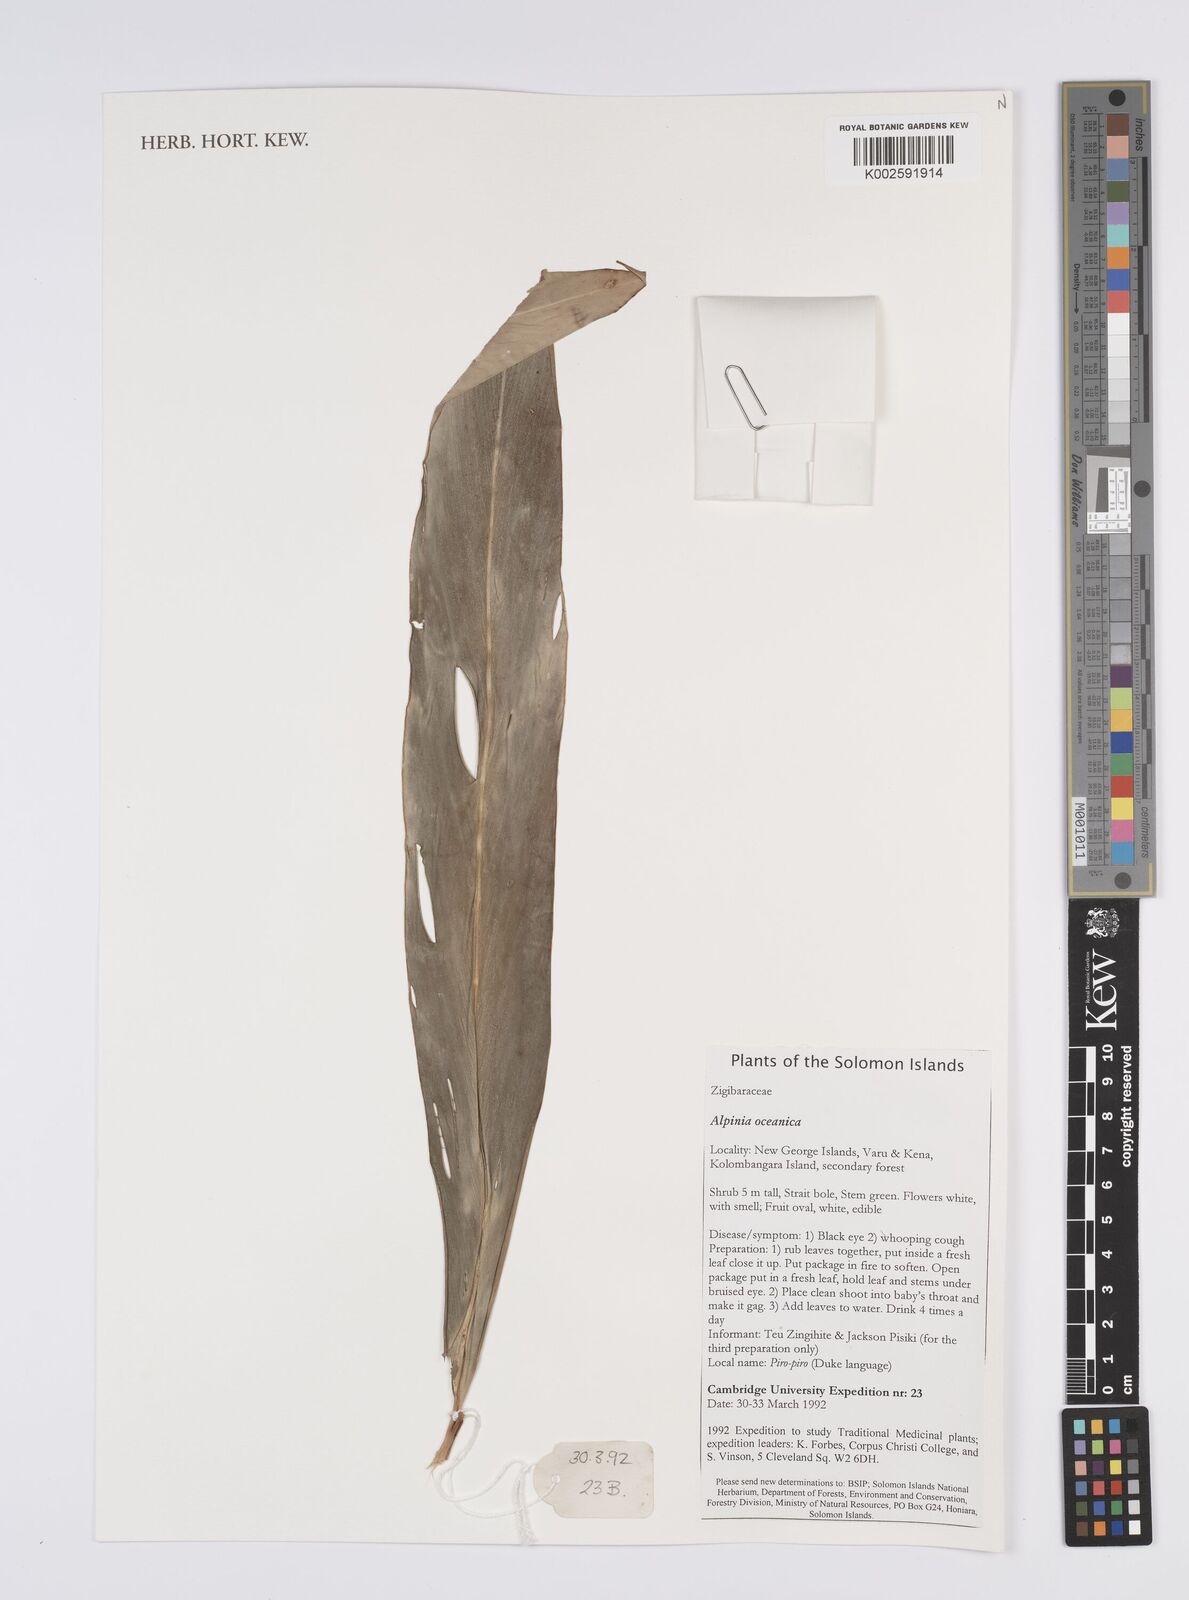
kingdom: Plantae
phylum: Tracheophyta
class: Liliopsida
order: Zingiberales
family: Zingiberaceae
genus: Alpinia
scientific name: Alpinia oceanica
